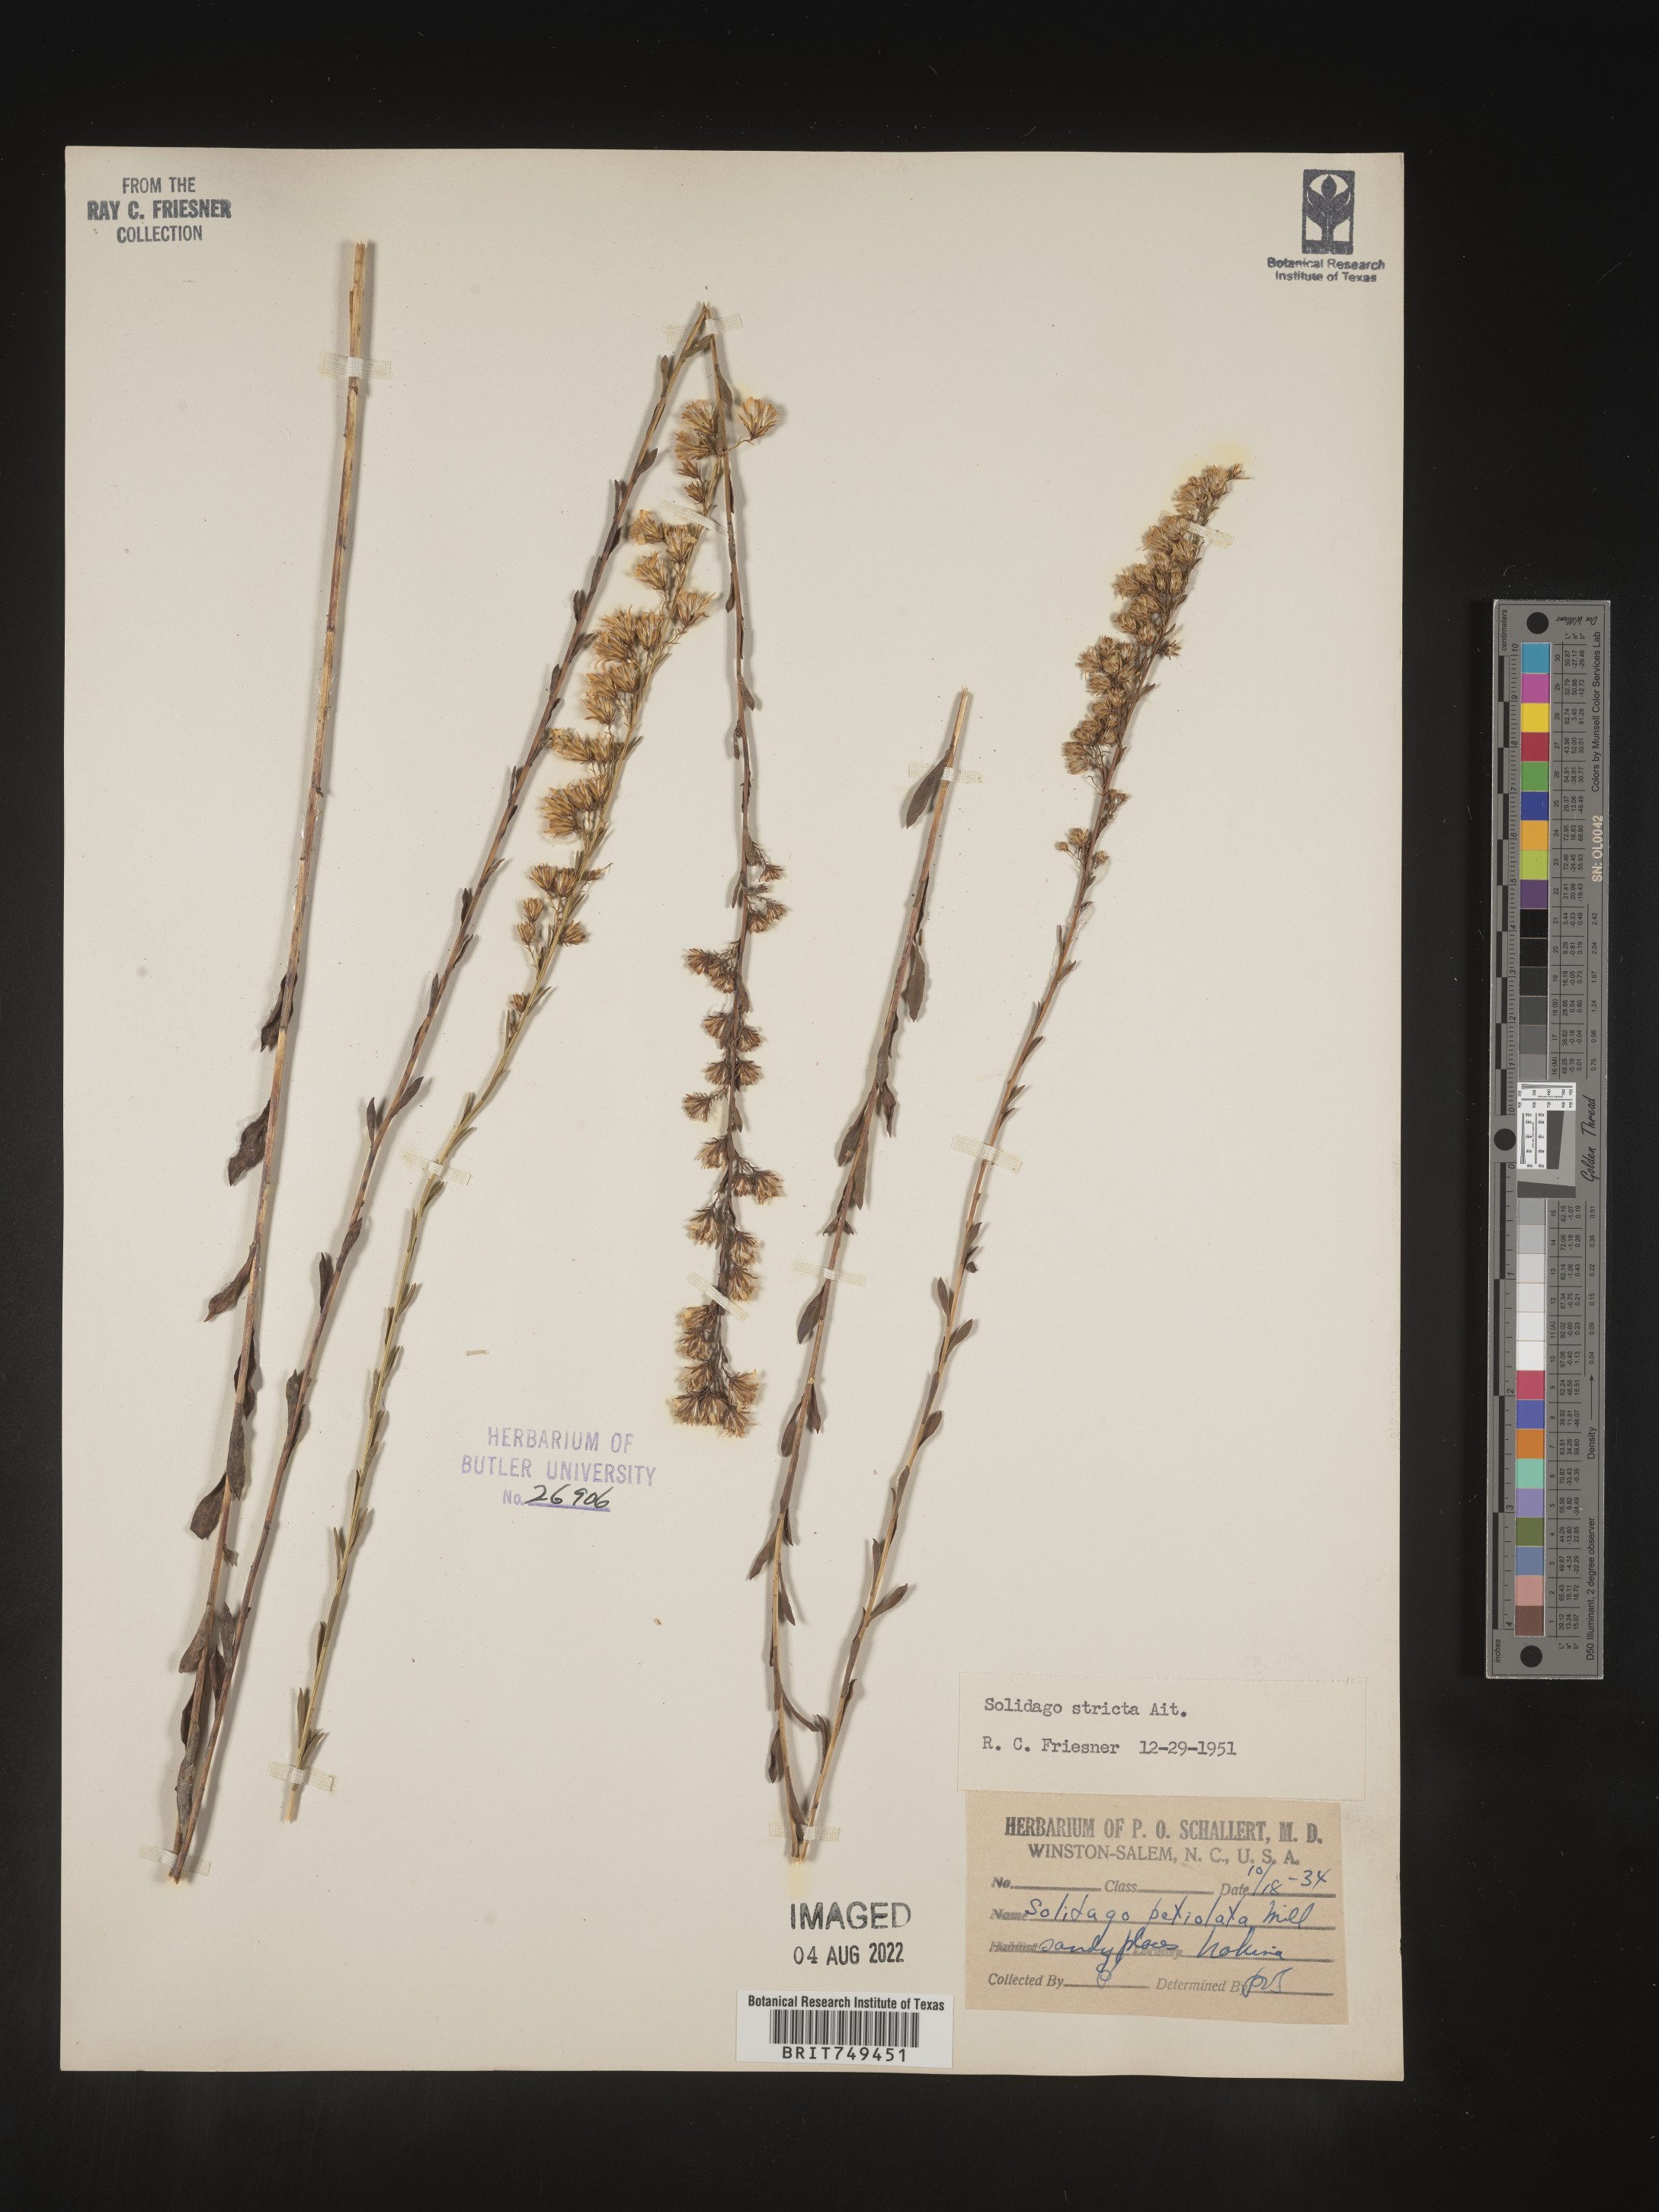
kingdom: Plantae
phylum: Tracheophyta
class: Magnoliopsida
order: Asterales
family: Asteraceae
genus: Solidago
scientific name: Solidago stricta
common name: Pine barren bog goldenrod
